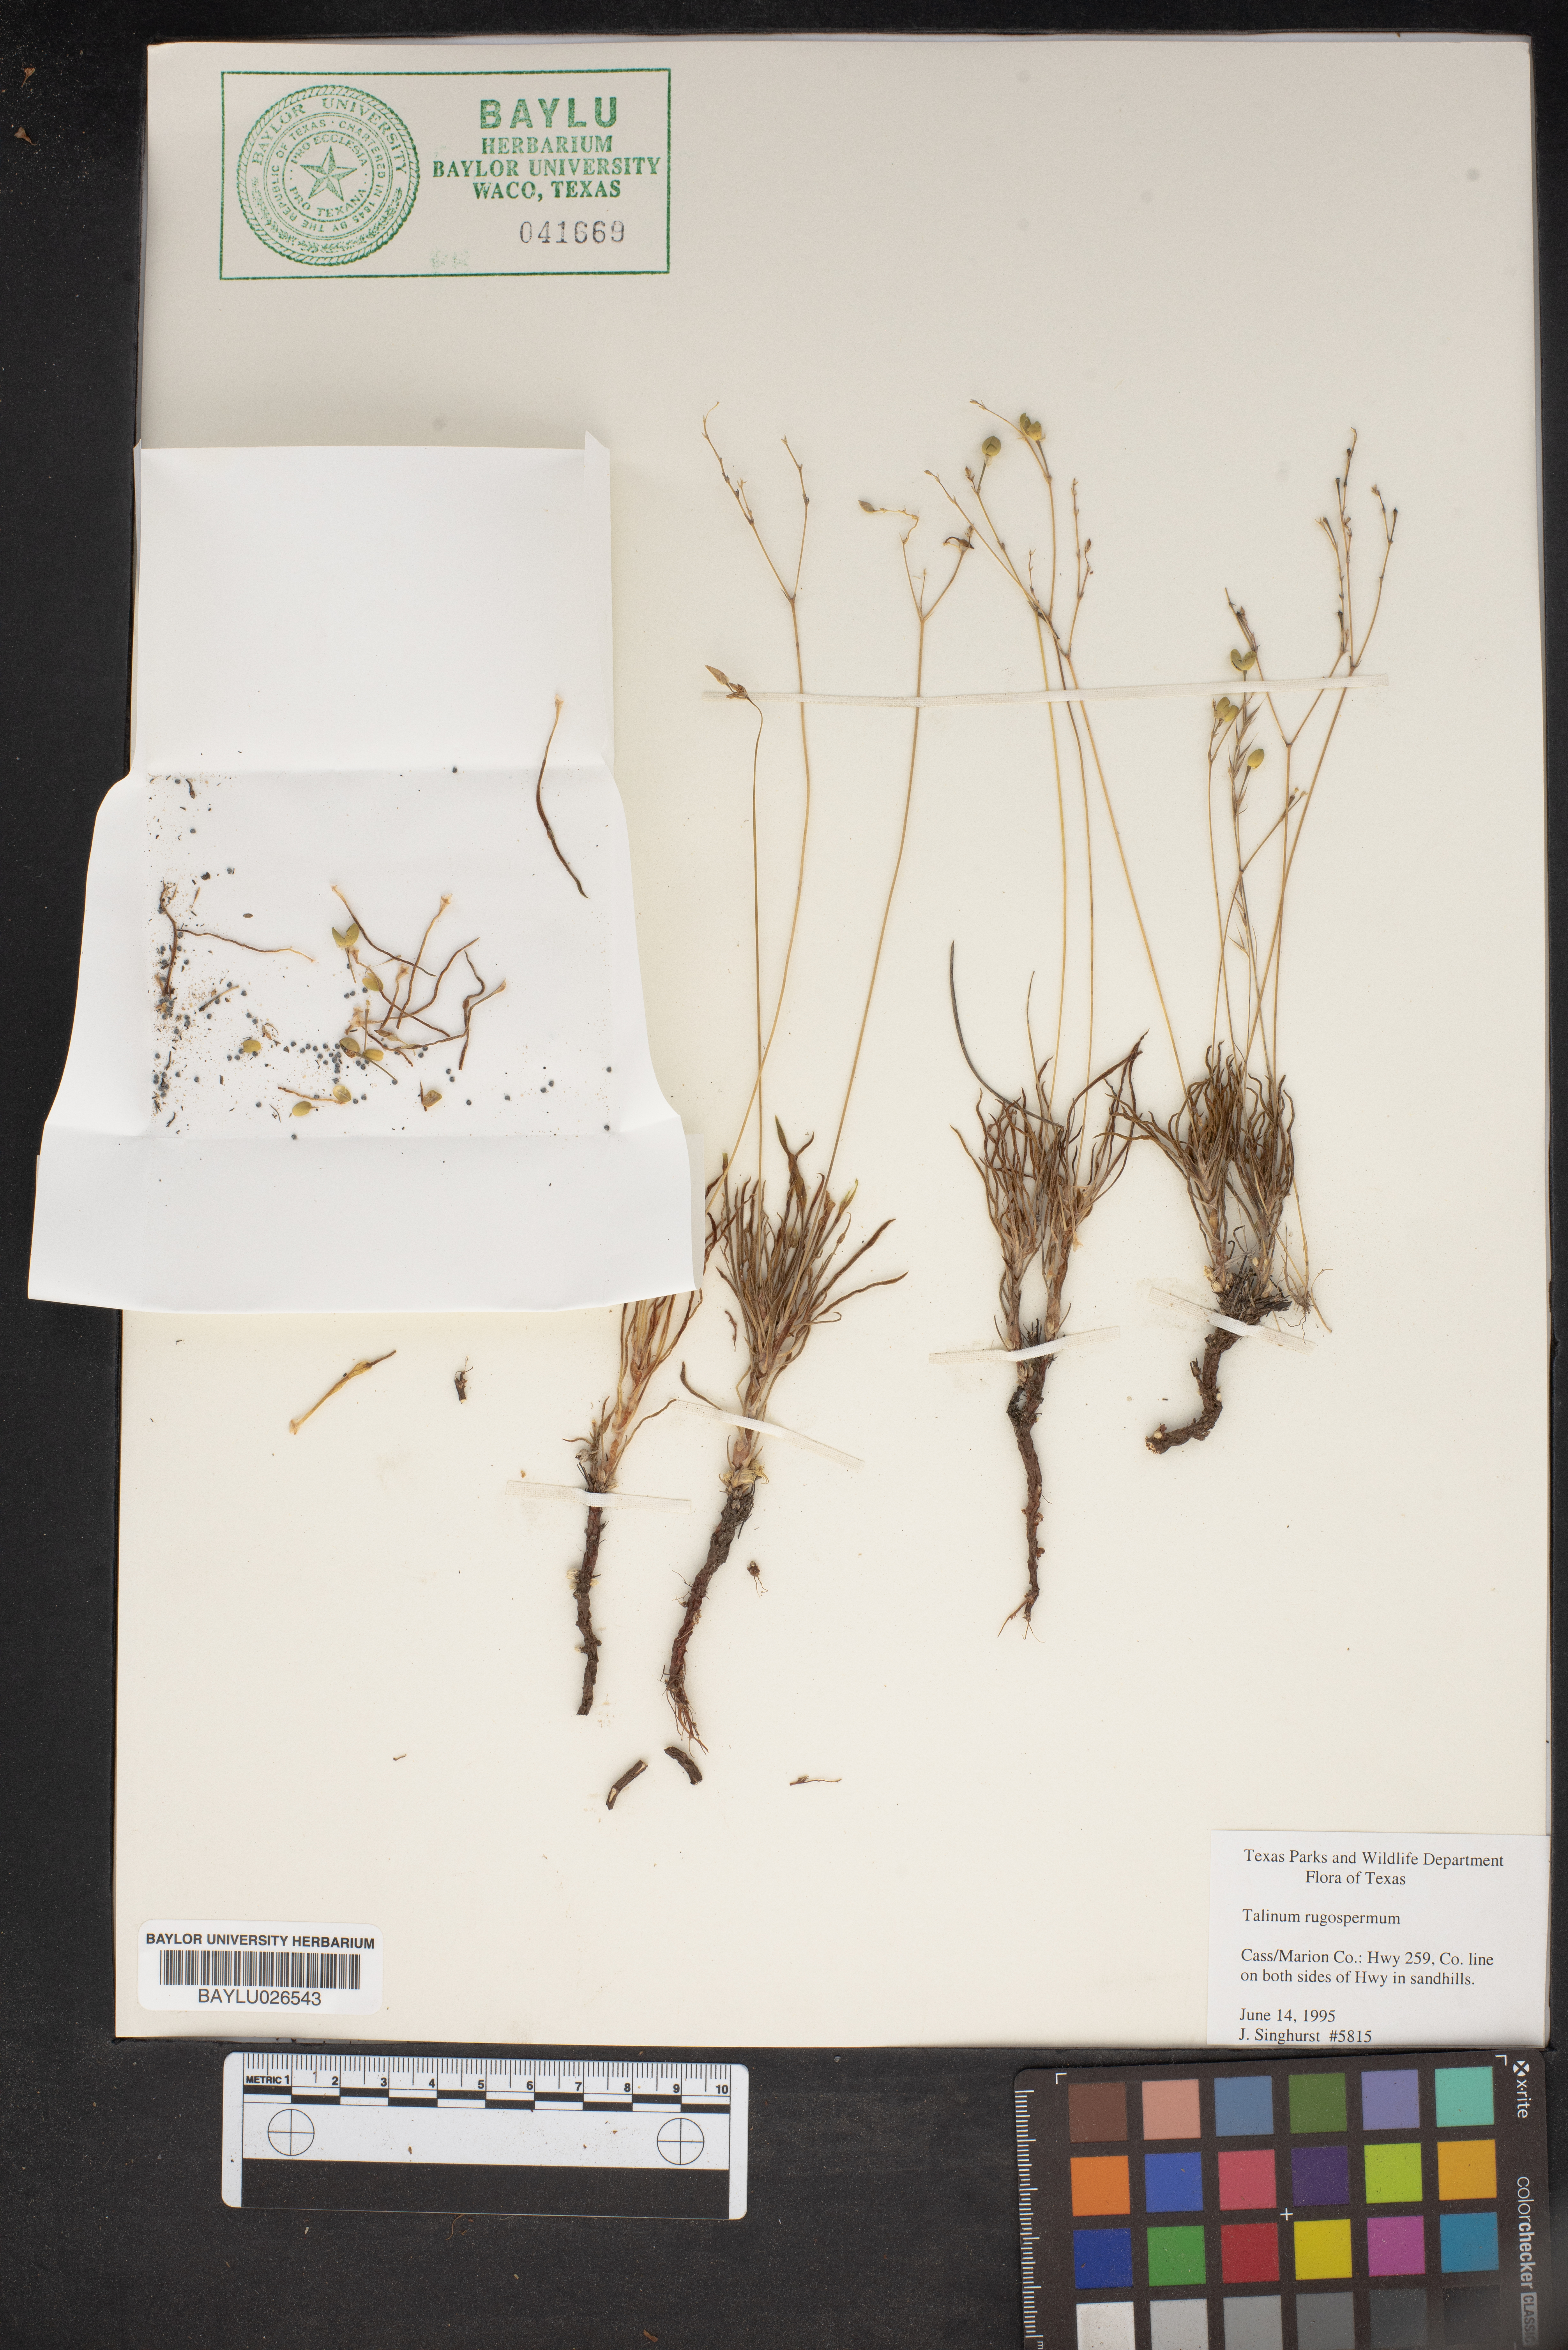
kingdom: Plantae
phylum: Tracheophyta
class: Magnoliopsida
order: Caryophyllales
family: Montiaceae
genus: Phemeranthus
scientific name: Phemeranthus rugospermus
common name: Prairie fameflower
